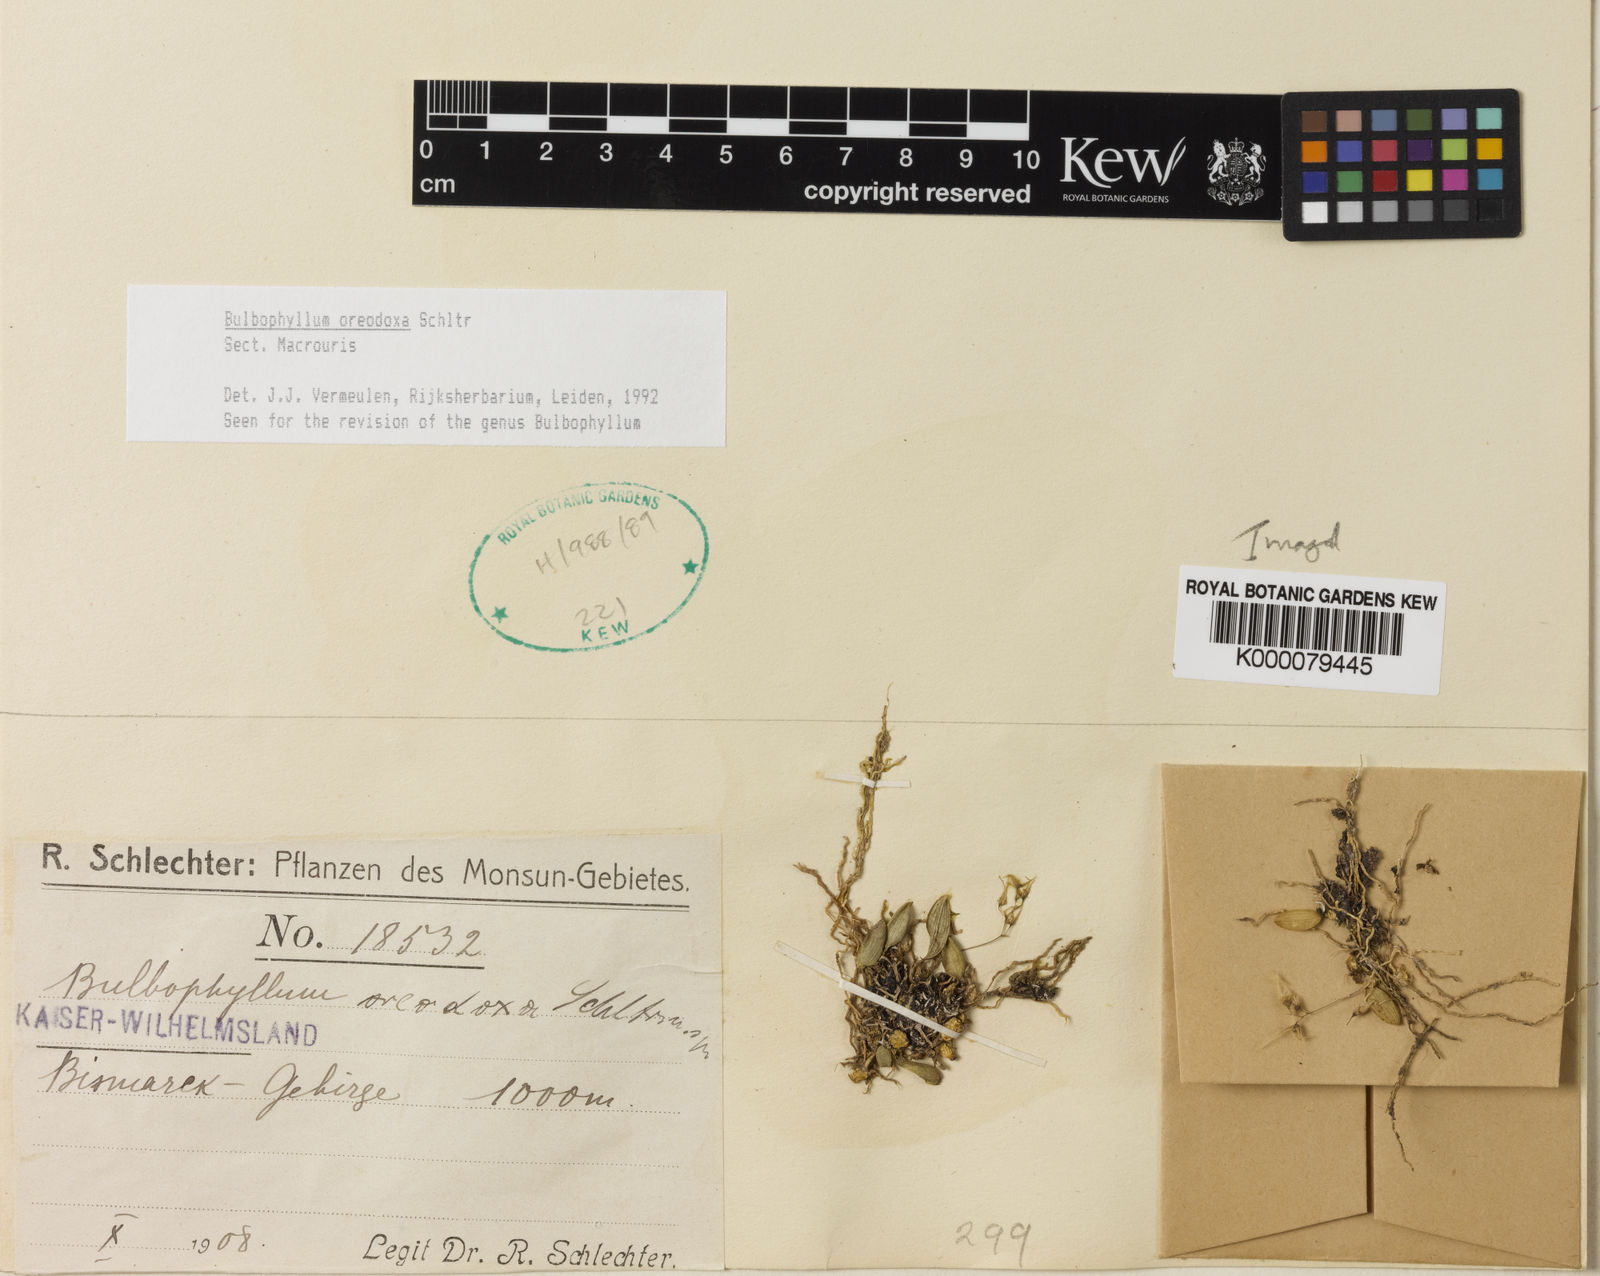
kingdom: Plantae
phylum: Tracheophyta
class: Liliopsida
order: Asparagales
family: Orchidaceae
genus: Bulbophyllum
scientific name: Bulbophyllum
